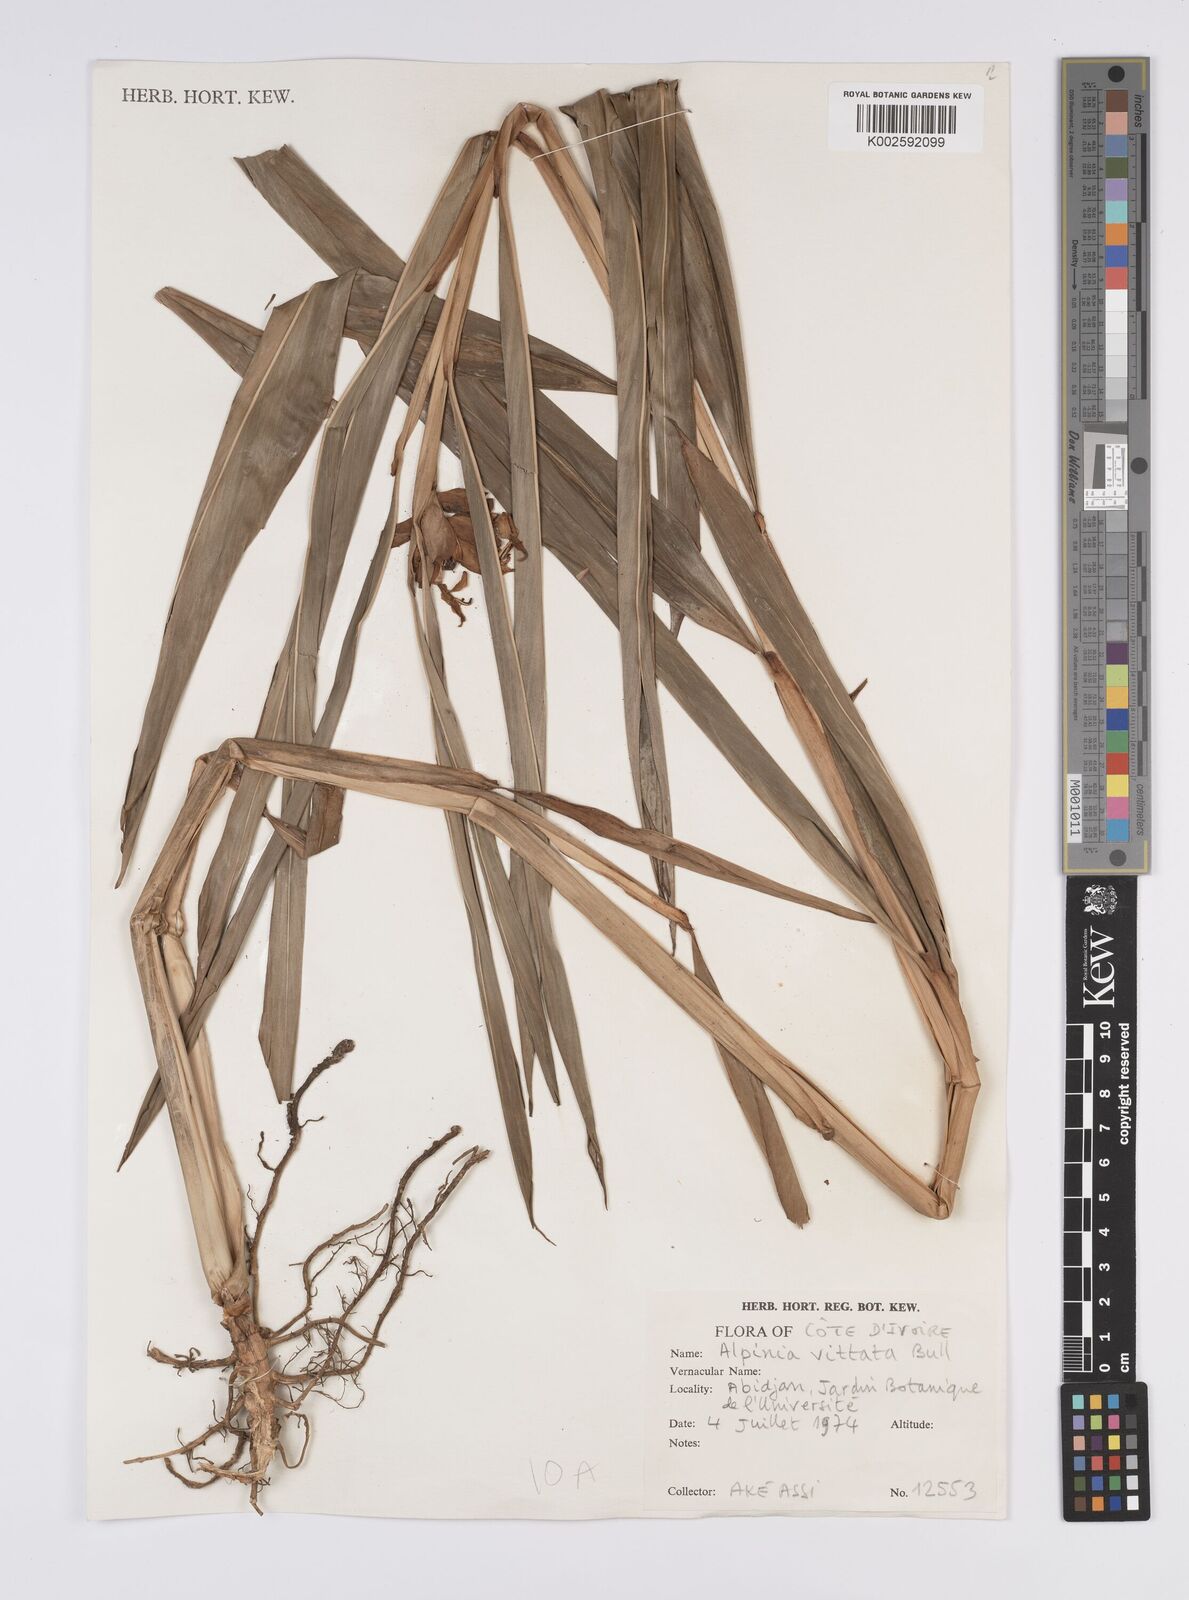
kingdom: Plantae
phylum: Tracheophyta
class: Liliopsida
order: Zingiberales
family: Zingiberaceae
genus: Alpinia
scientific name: Alpinia vittata
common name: Variegate-ginger
